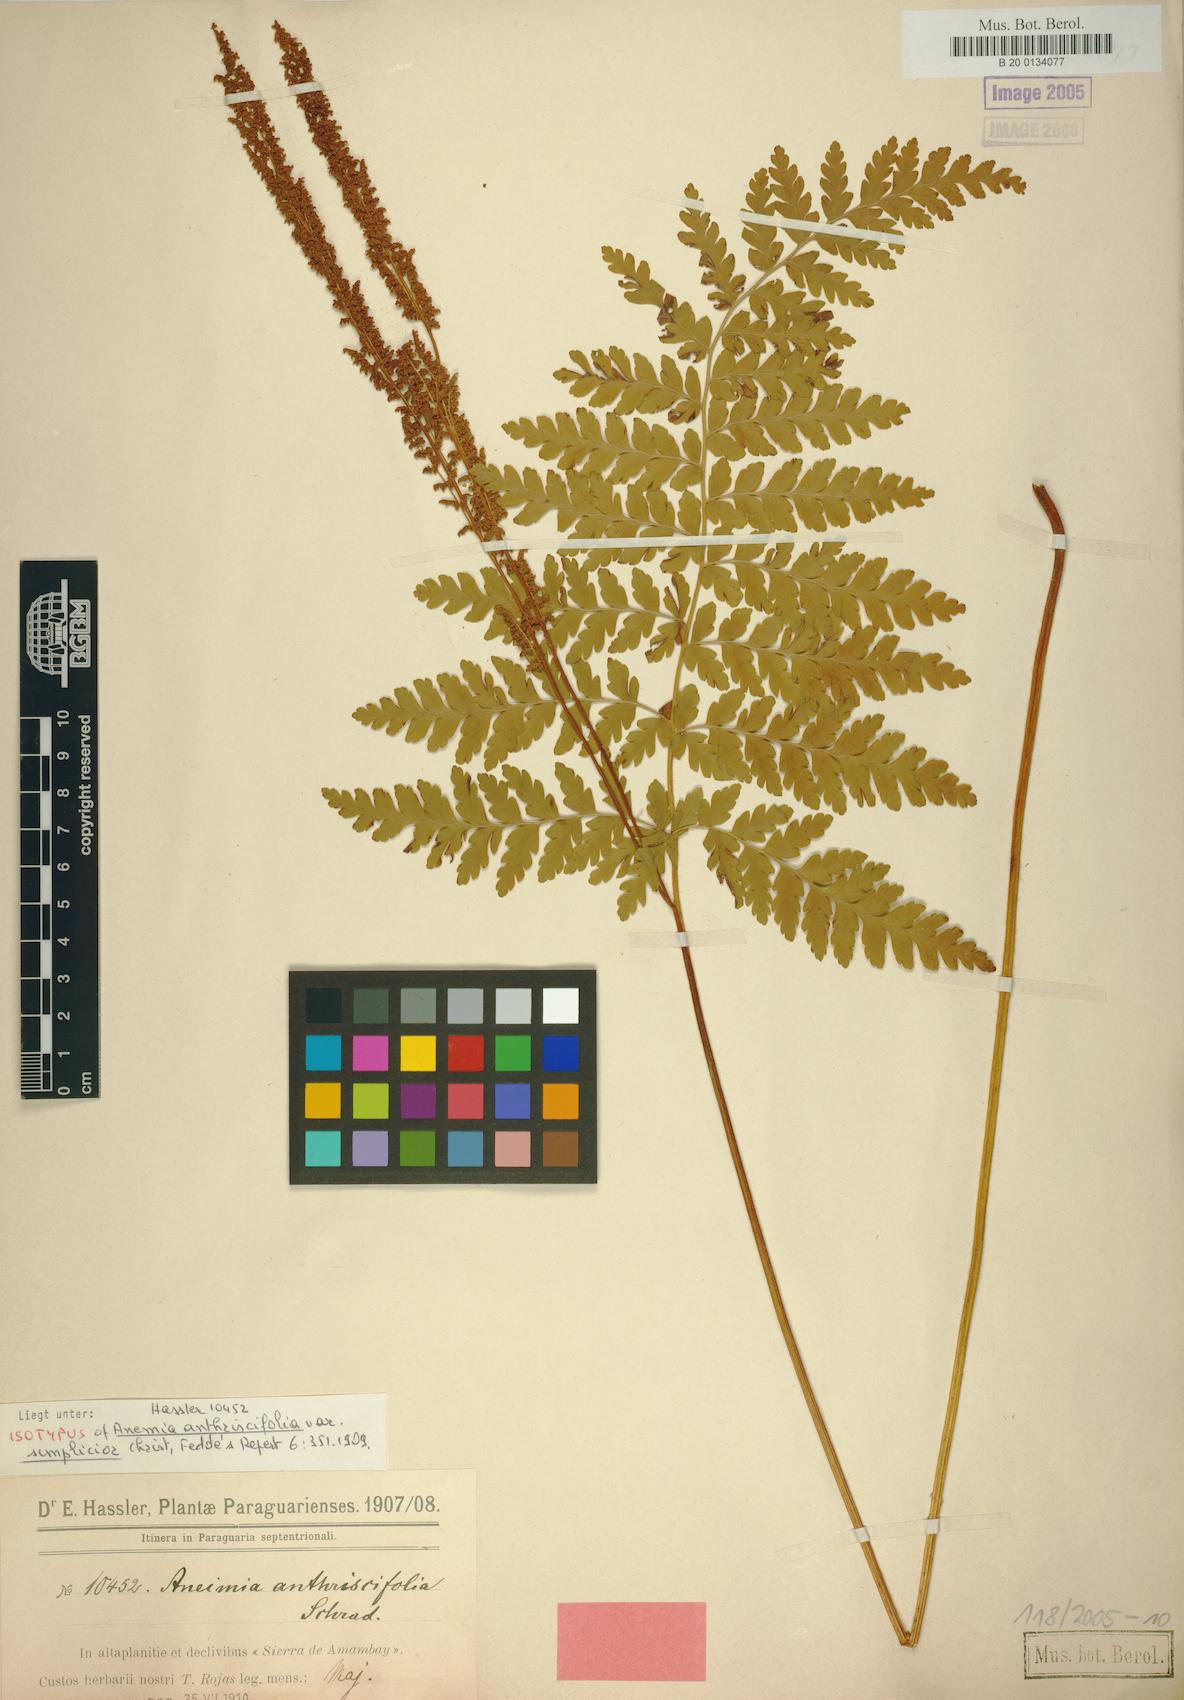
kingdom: Plantae
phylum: Tracheophyta
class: Polypodiopsida
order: Schizaeales
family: Anemiaceae
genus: Anemia
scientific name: Anemia simplicior
